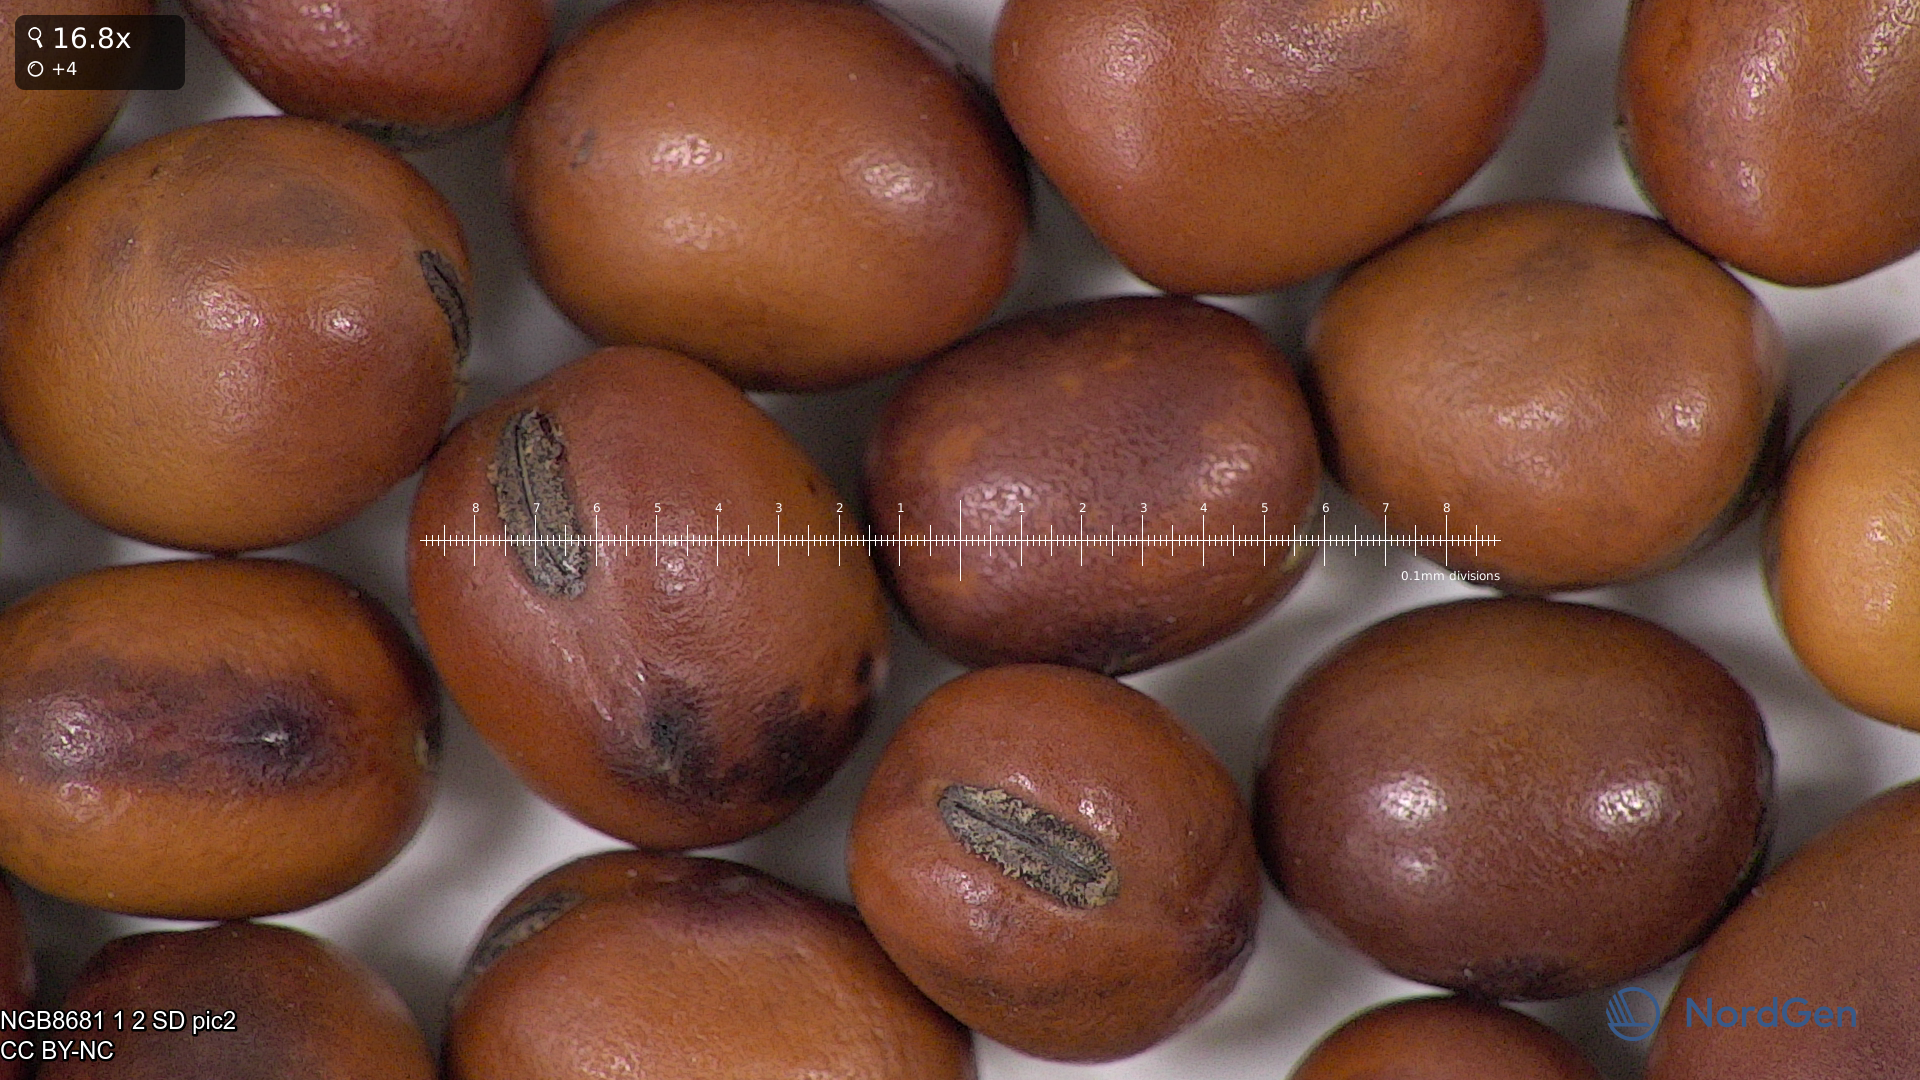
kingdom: Plantae
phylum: Tracheophyta
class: Magnoliopsida
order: Fabales
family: Fabaceae
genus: Vicia
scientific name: Vicia faba
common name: Broad bean
